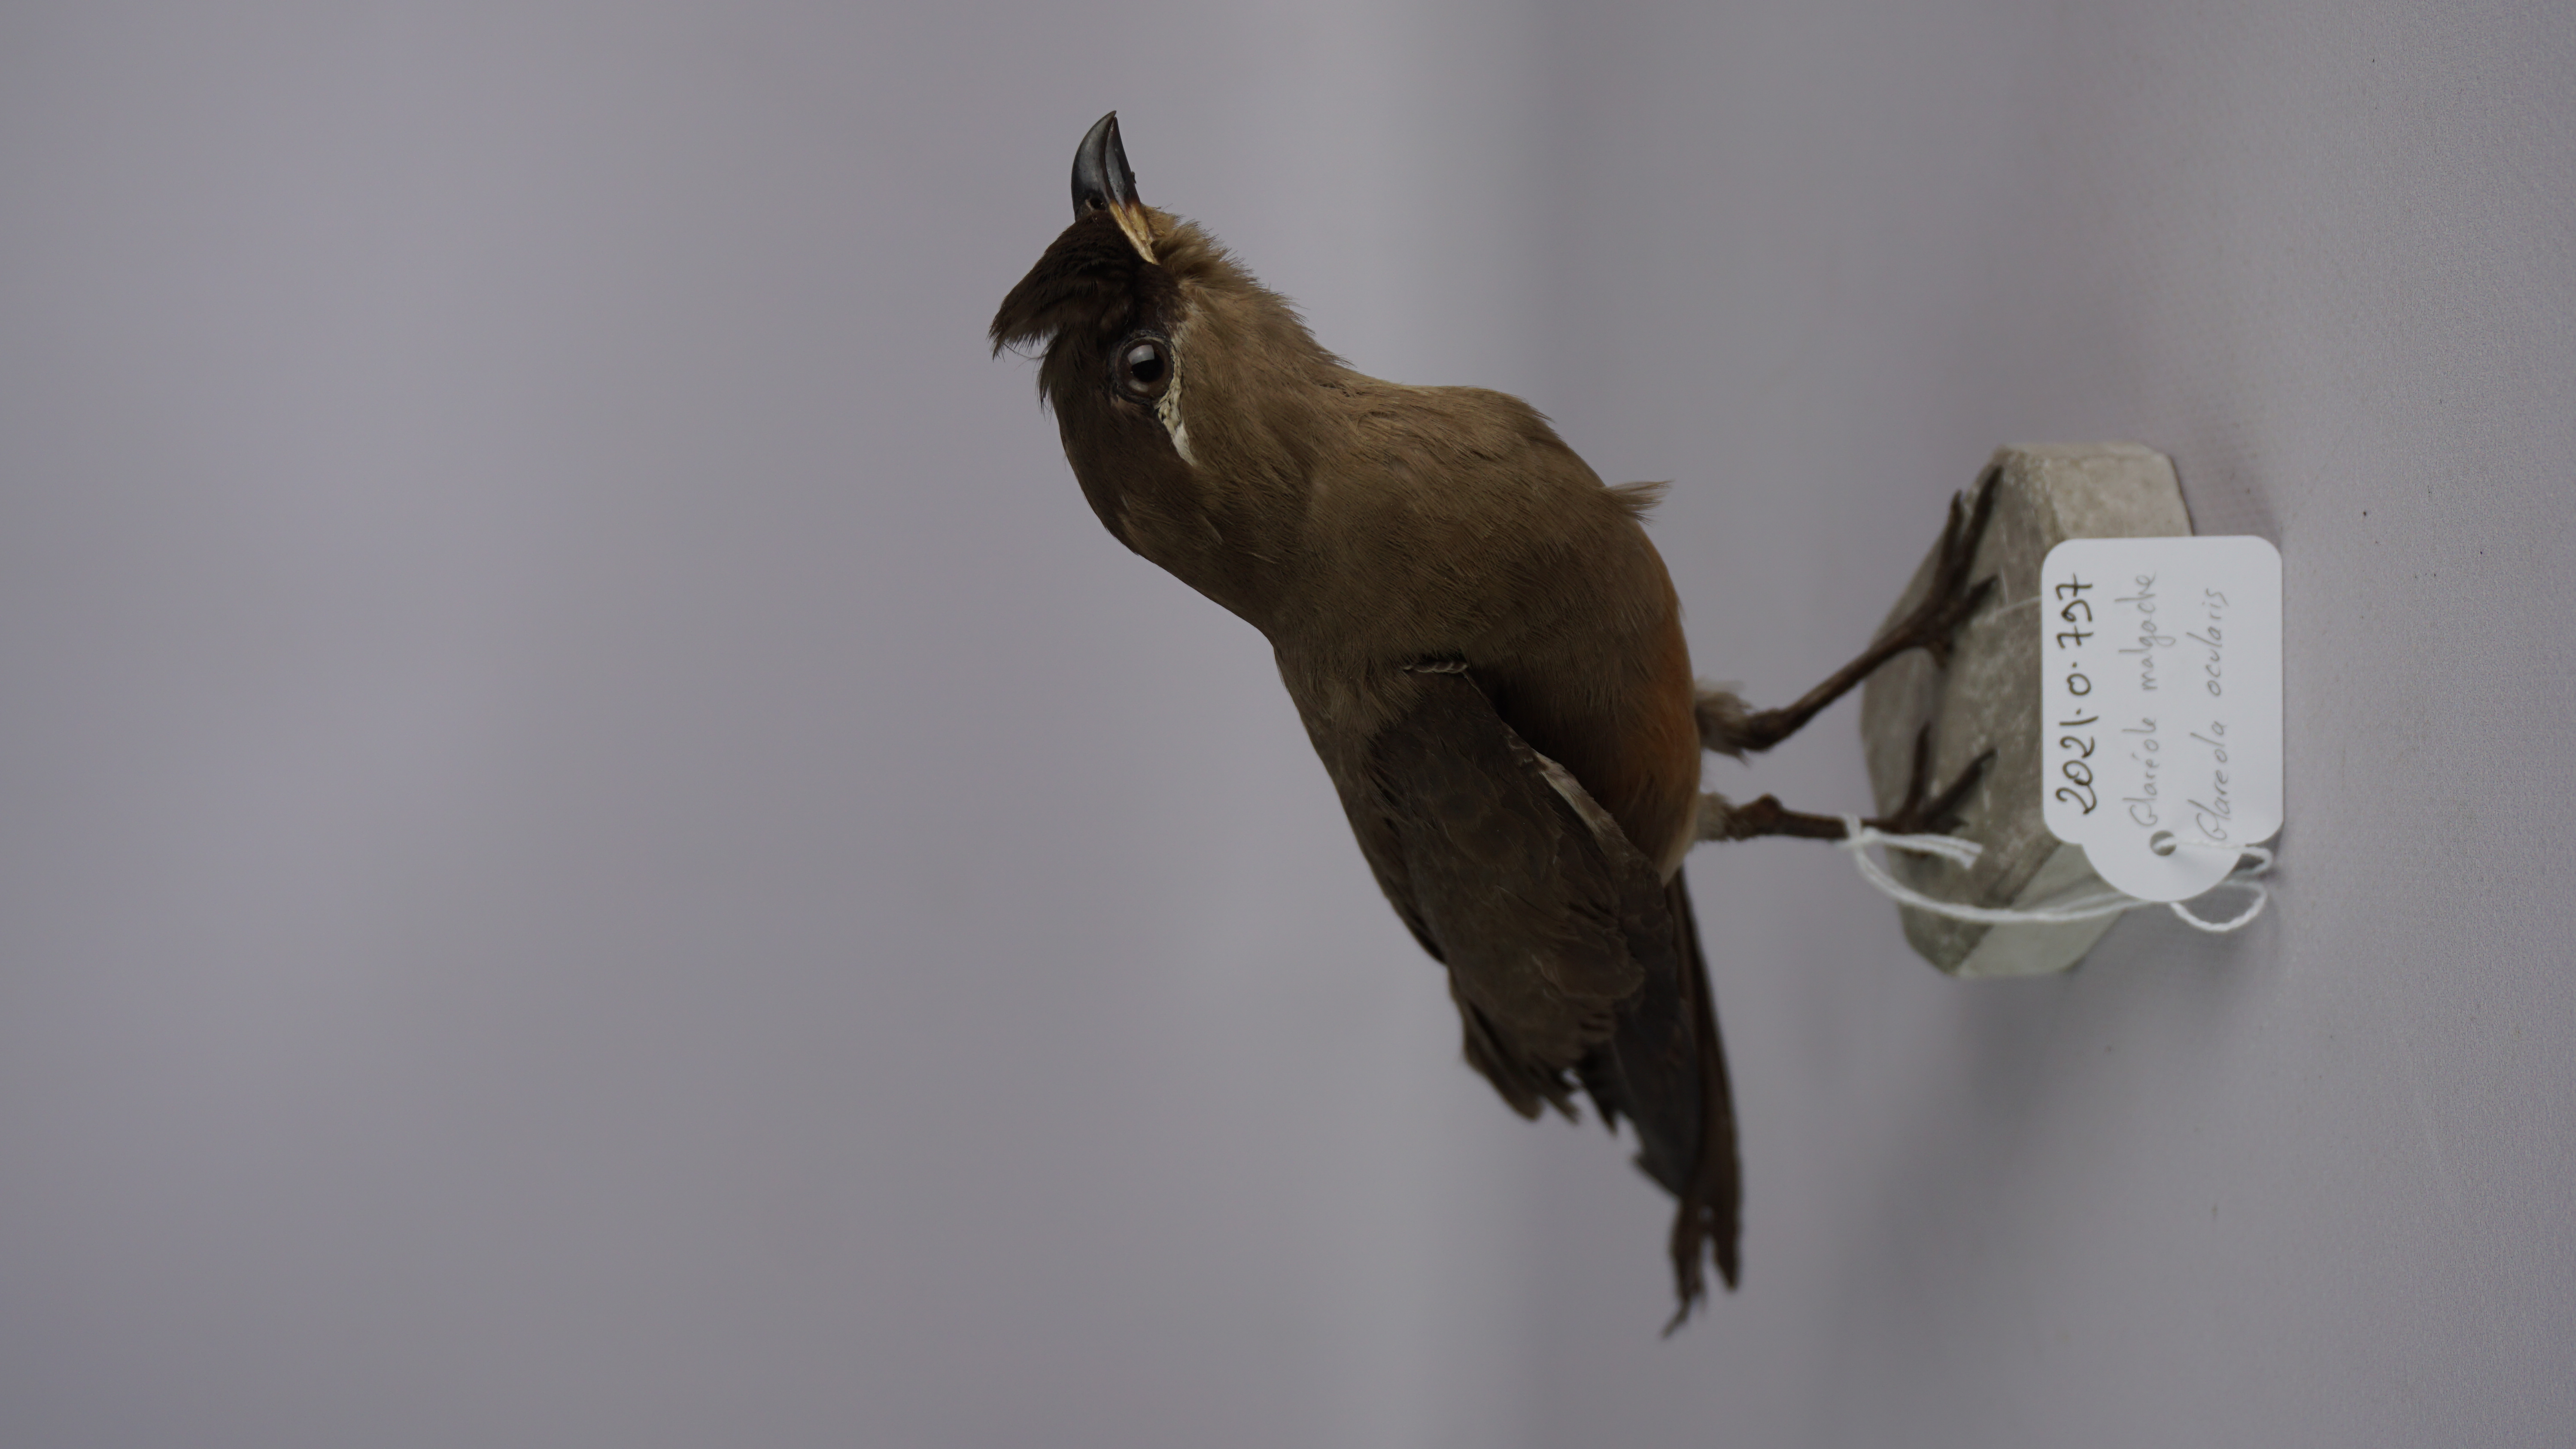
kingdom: Animalia
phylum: Chordata
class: Aves
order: Charadriiformes
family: Glareolidae
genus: Glareola
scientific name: Glareola ocularis
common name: Madagascar pratincole
